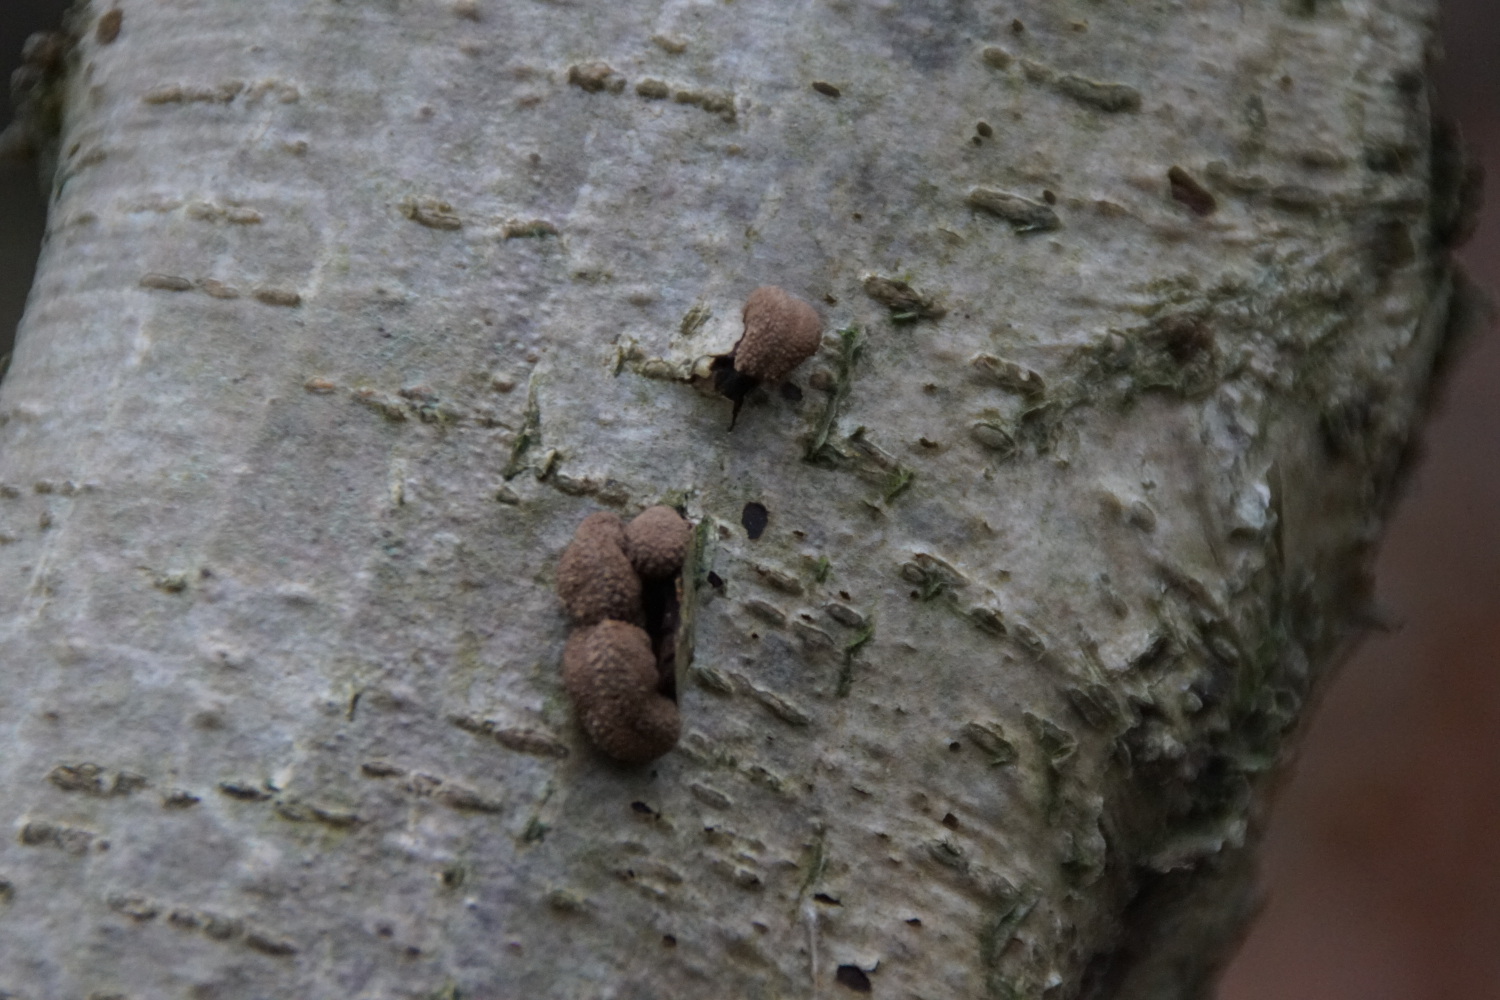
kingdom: Fungi
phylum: Ascomycota
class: Leotiomycetes
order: Helotiales
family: Cenangiaceae
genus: Encoelia
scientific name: Encoelia furfuracea
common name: hassel-læderskive
